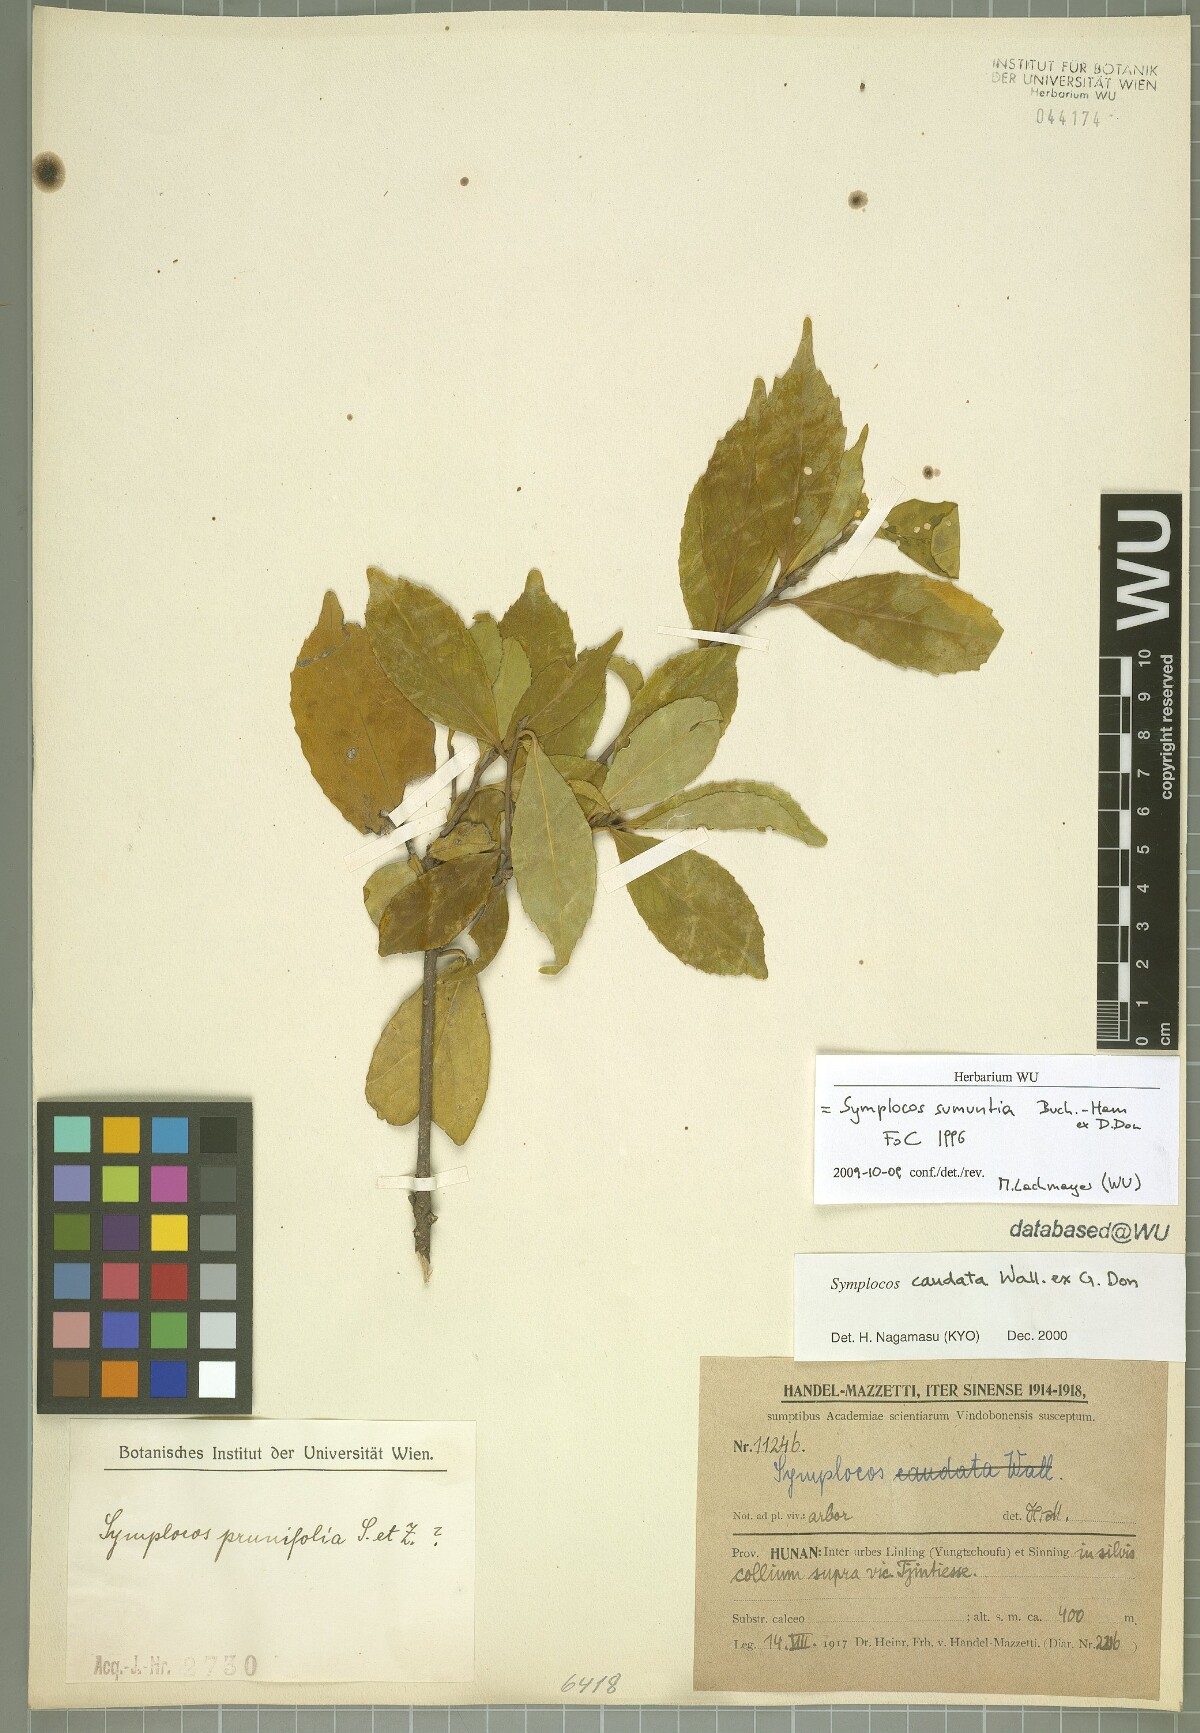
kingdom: Plantae
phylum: Tracheophyta
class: Magnoliopsida
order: Ericales
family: Symplocaceae
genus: Symplocos
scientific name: Symplocos sumuntia
